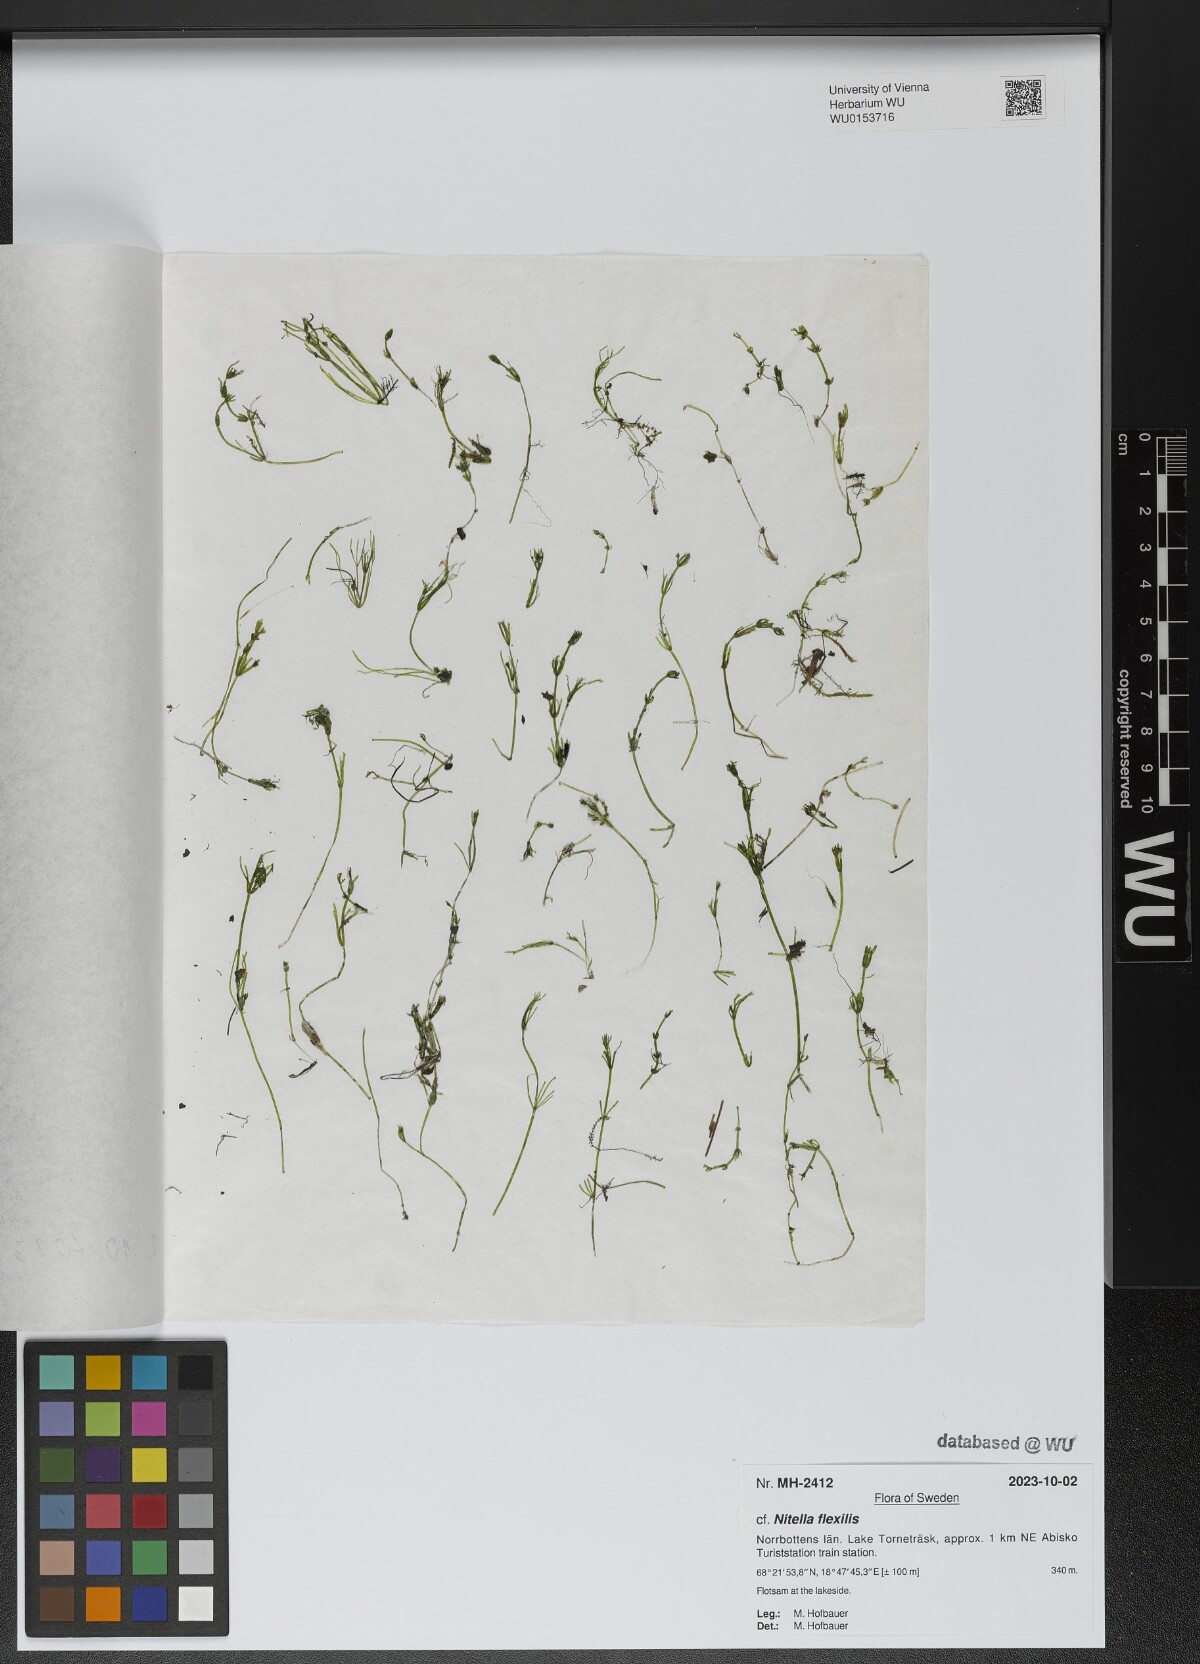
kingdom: Plantae
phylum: Charophyta
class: Charophyceae
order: Charales
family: Characeae
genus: Nitella
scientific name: Nitella flexilis
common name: Smooth stonewort
